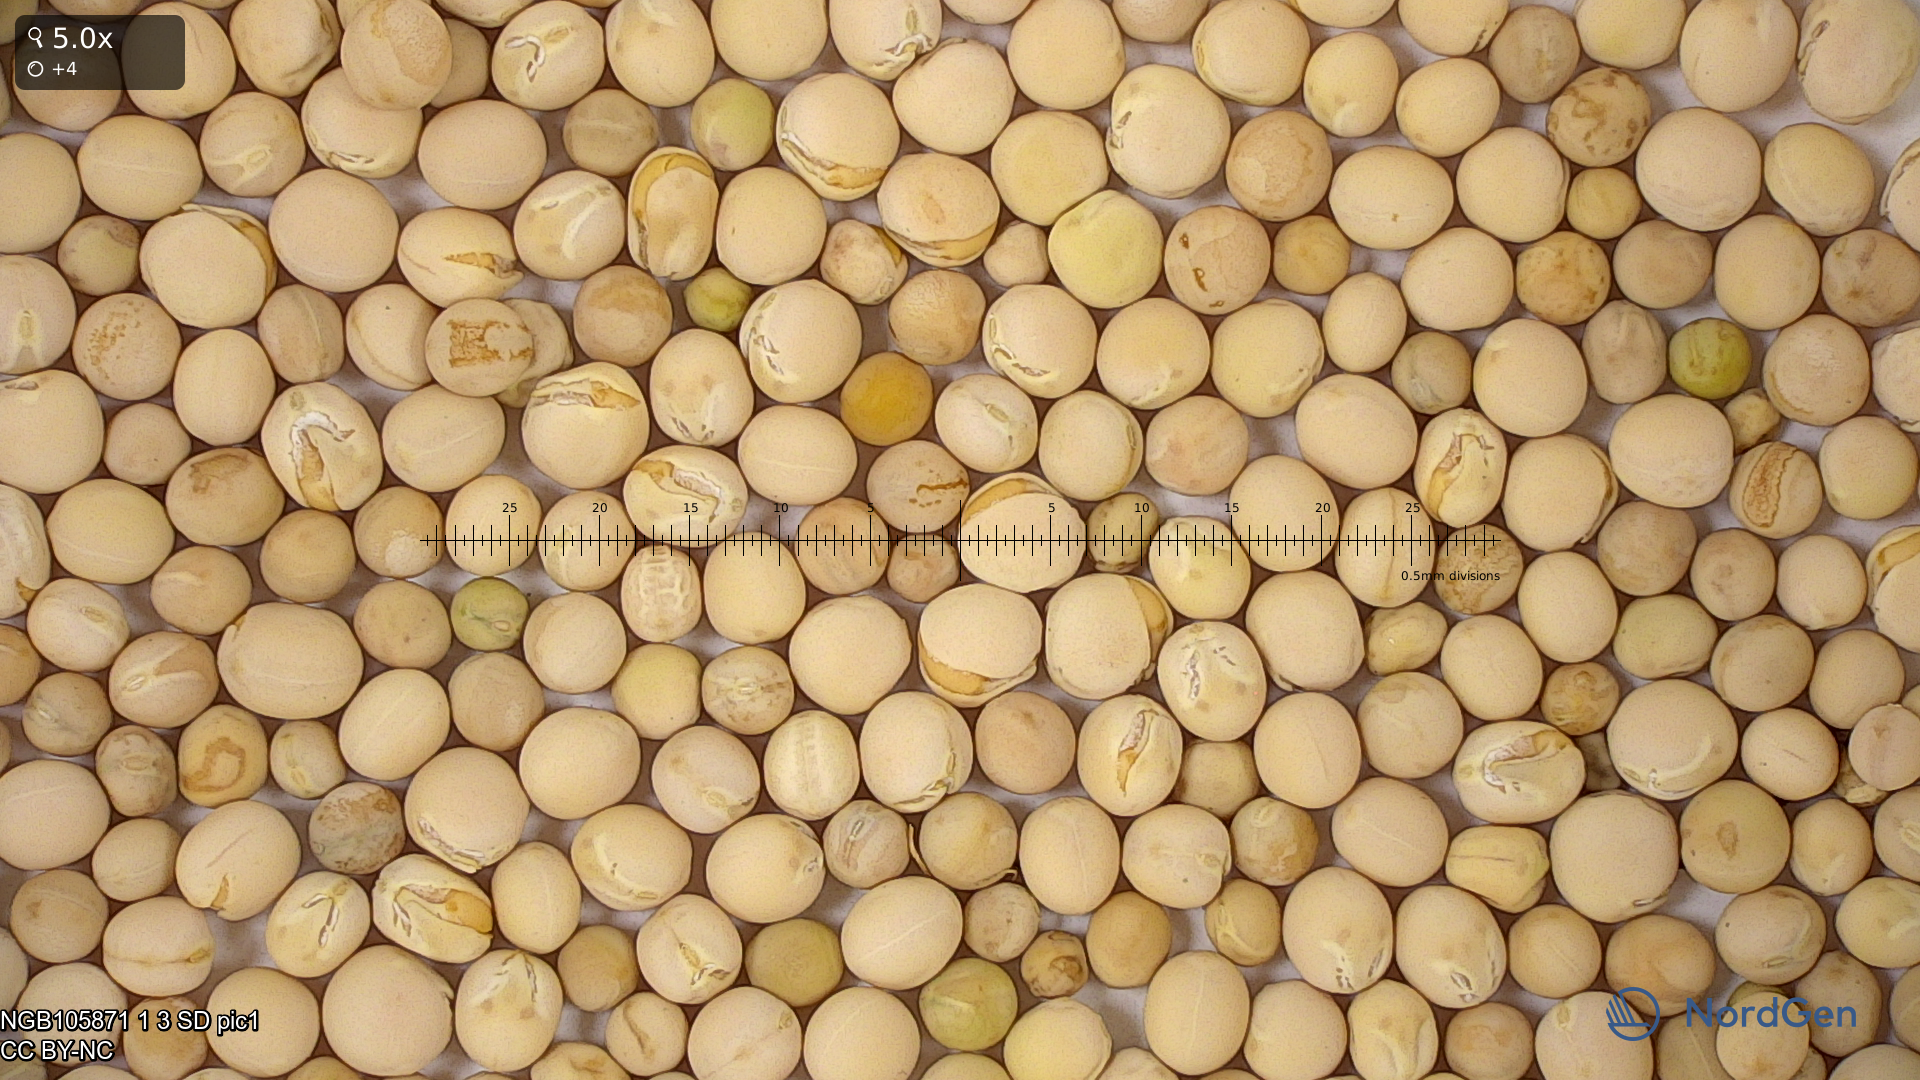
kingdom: Plantae
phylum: Tracheophyta
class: Magnoliopsida
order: Fabales
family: Fabaceae
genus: Lathyrus
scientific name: Lathyrus oleraceus
